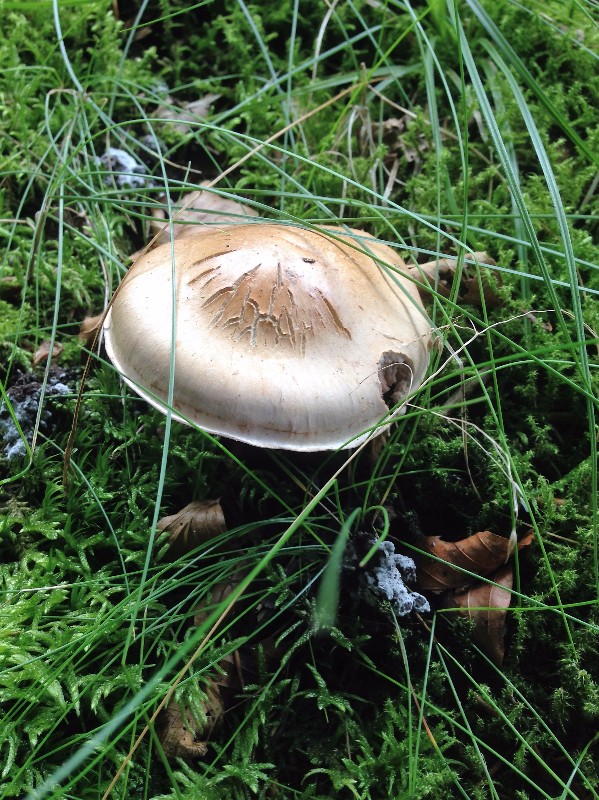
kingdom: Fungi
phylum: Basidiomycota
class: Agaricomycetes
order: Agaricales
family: Cortinariaceae
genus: Cortinarius
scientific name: Cortinarius largus
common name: violetrandet slørhat
